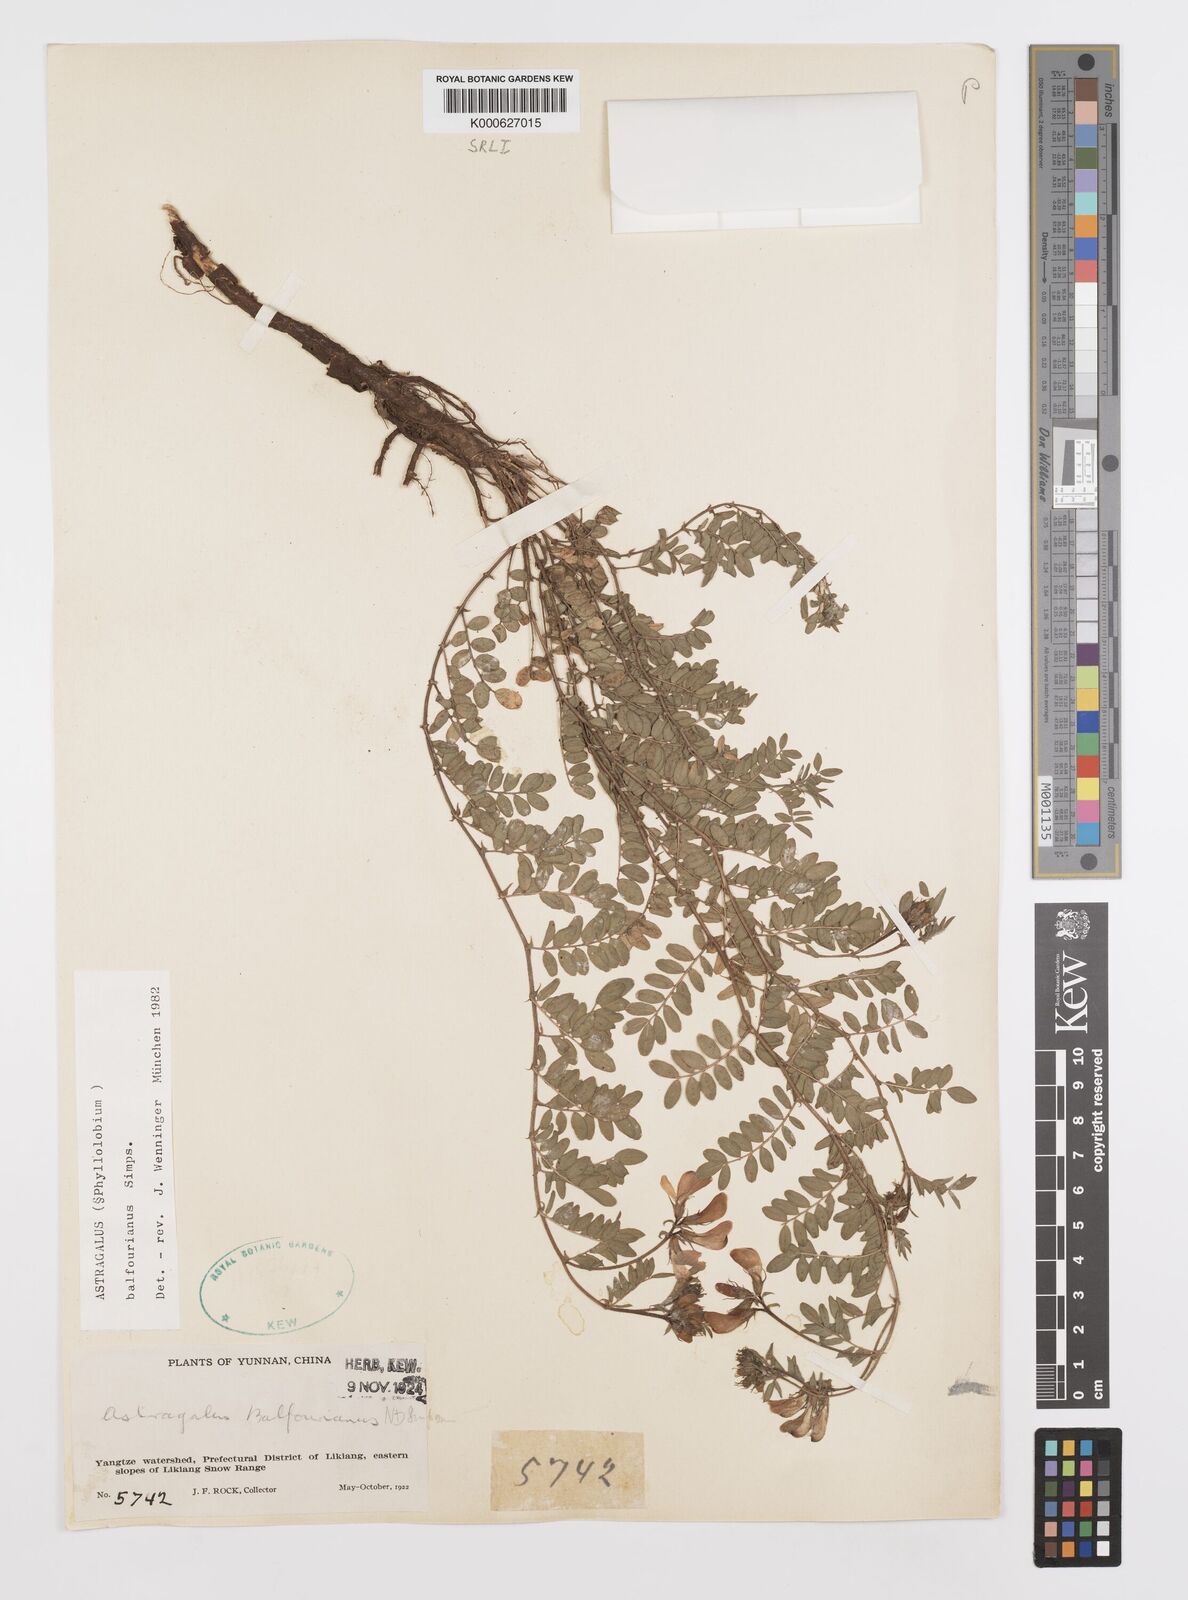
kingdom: Plantae
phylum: Tracheophyta
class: Magnoliopsida
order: Fabales
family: Fabaceae
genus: Phyllolobium
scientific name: Phyllolobium balfourianum
